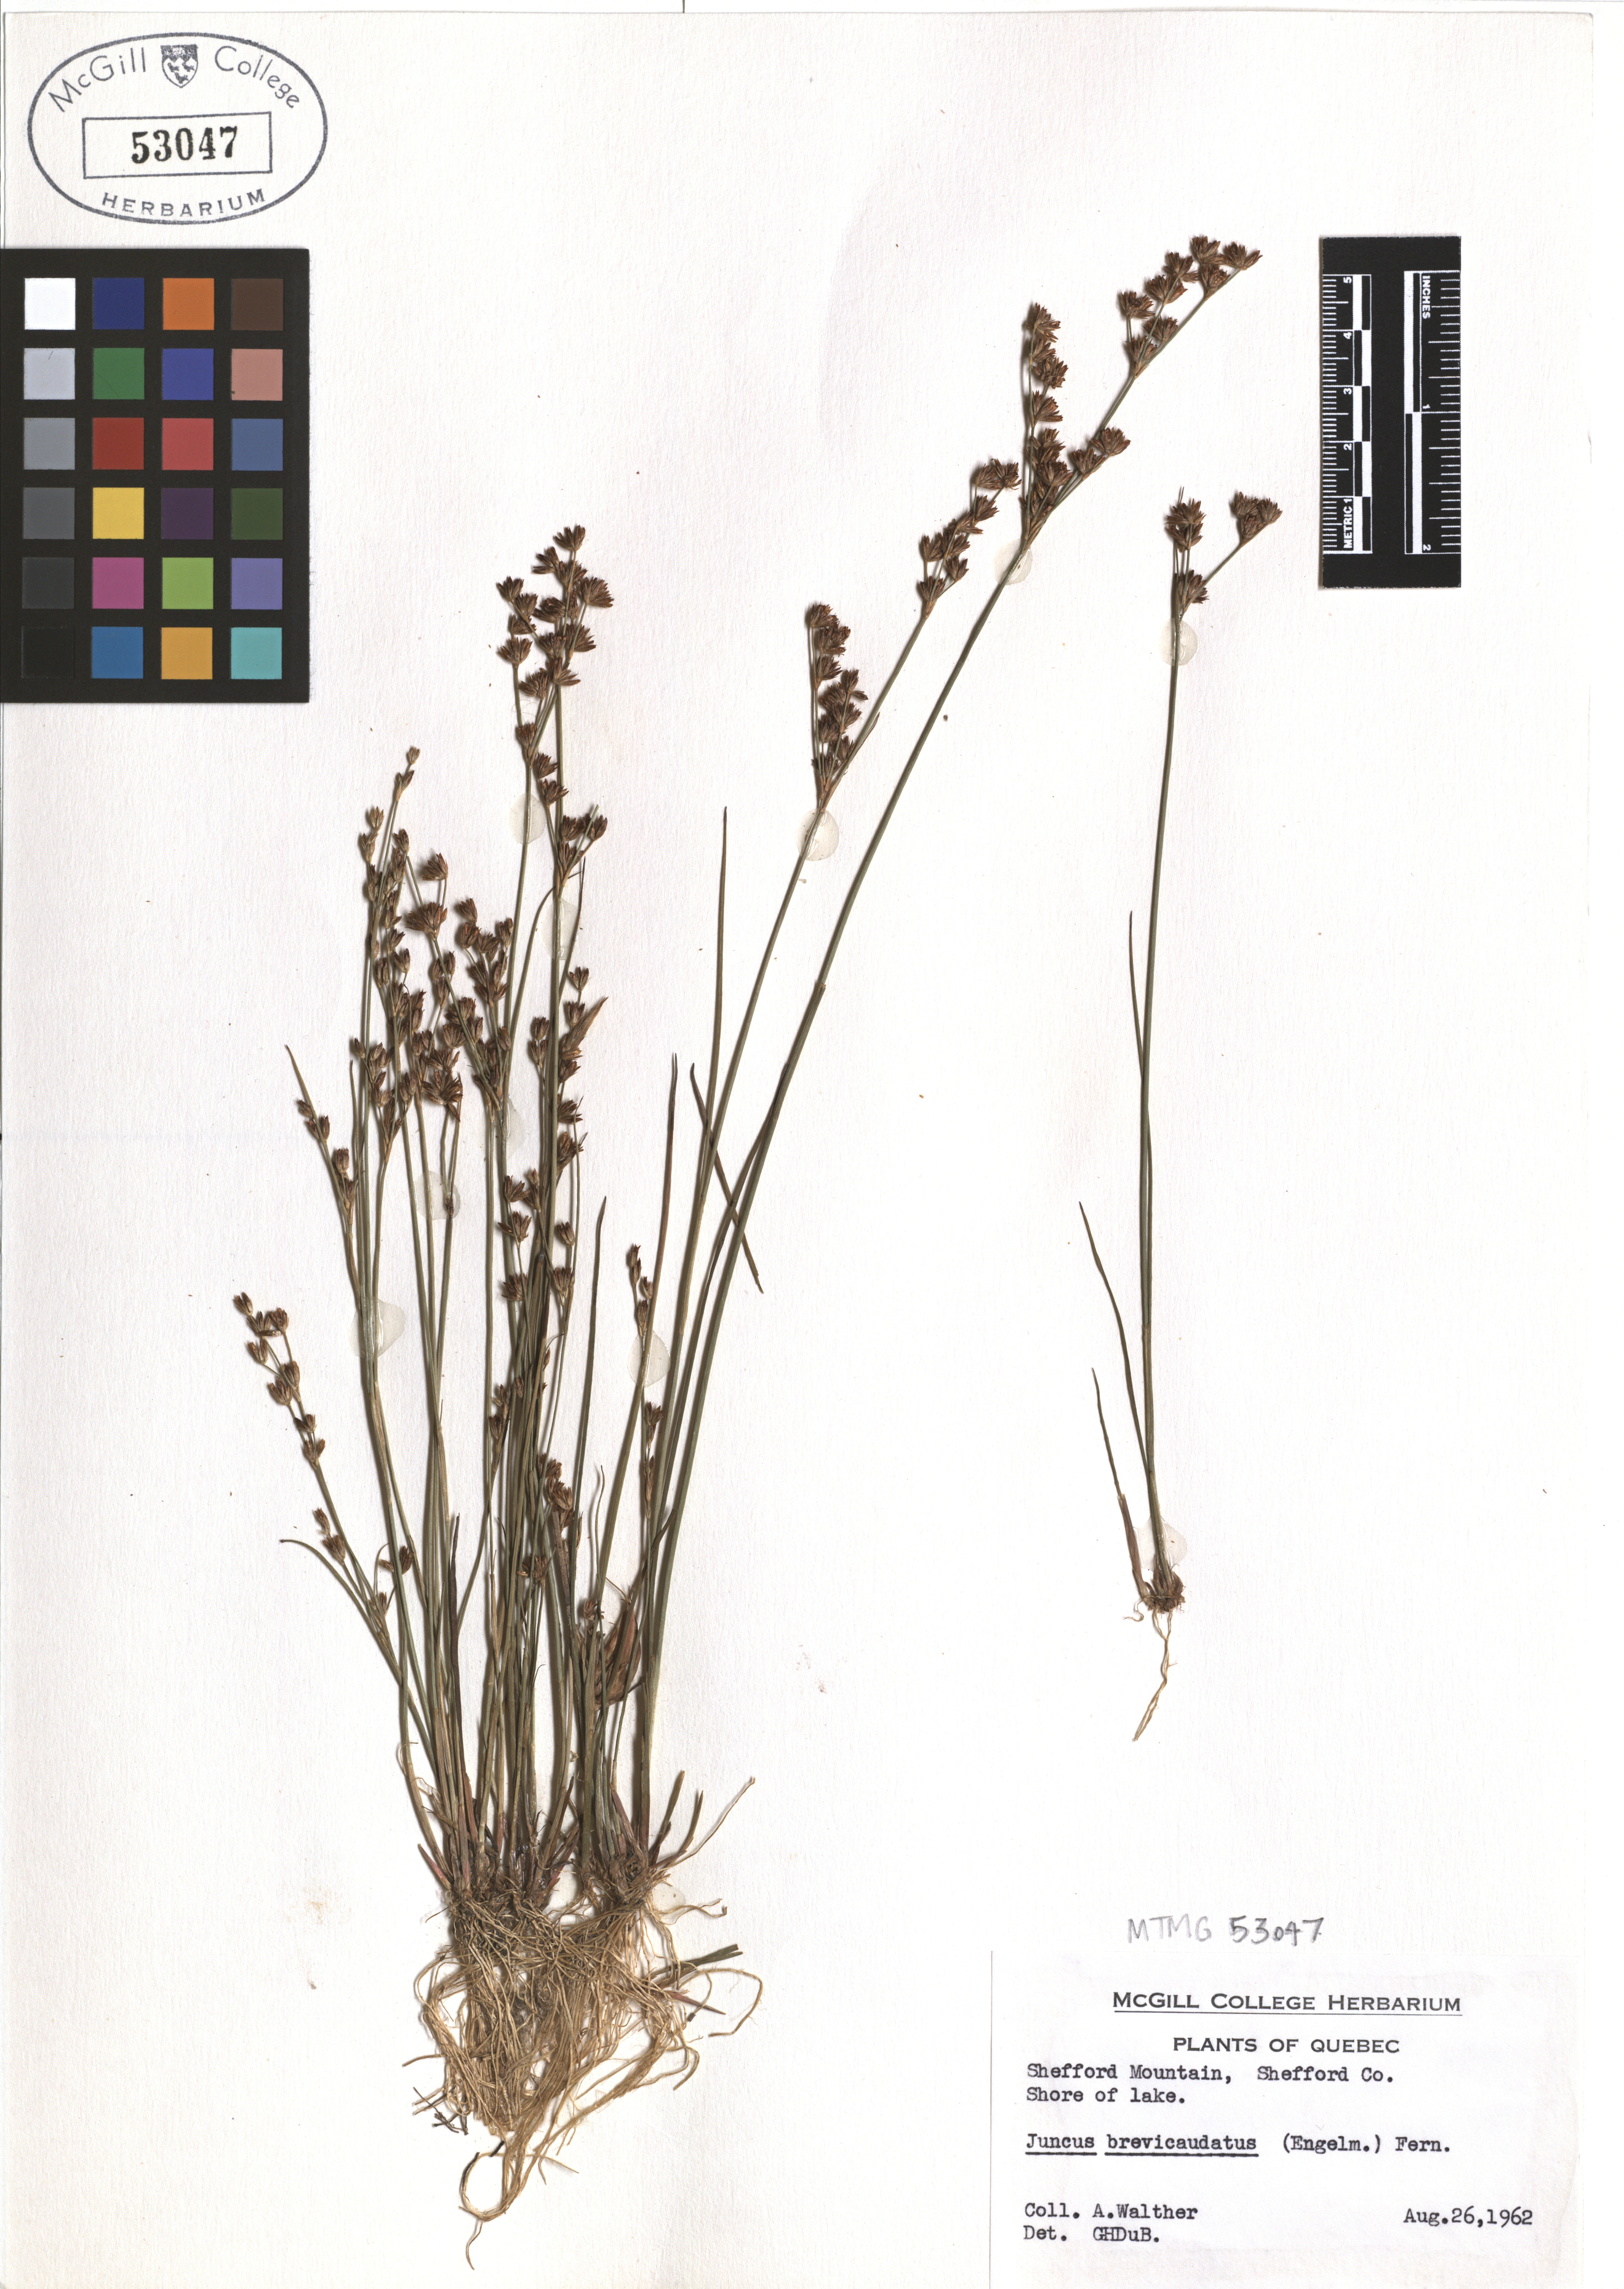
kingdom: Plantae
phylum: Tracheophyta
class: Liliopsida
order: Poales
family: Juncaceae
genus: Juncus
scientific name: Juncus brevicaudatus
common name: Narrow-panicle rush
